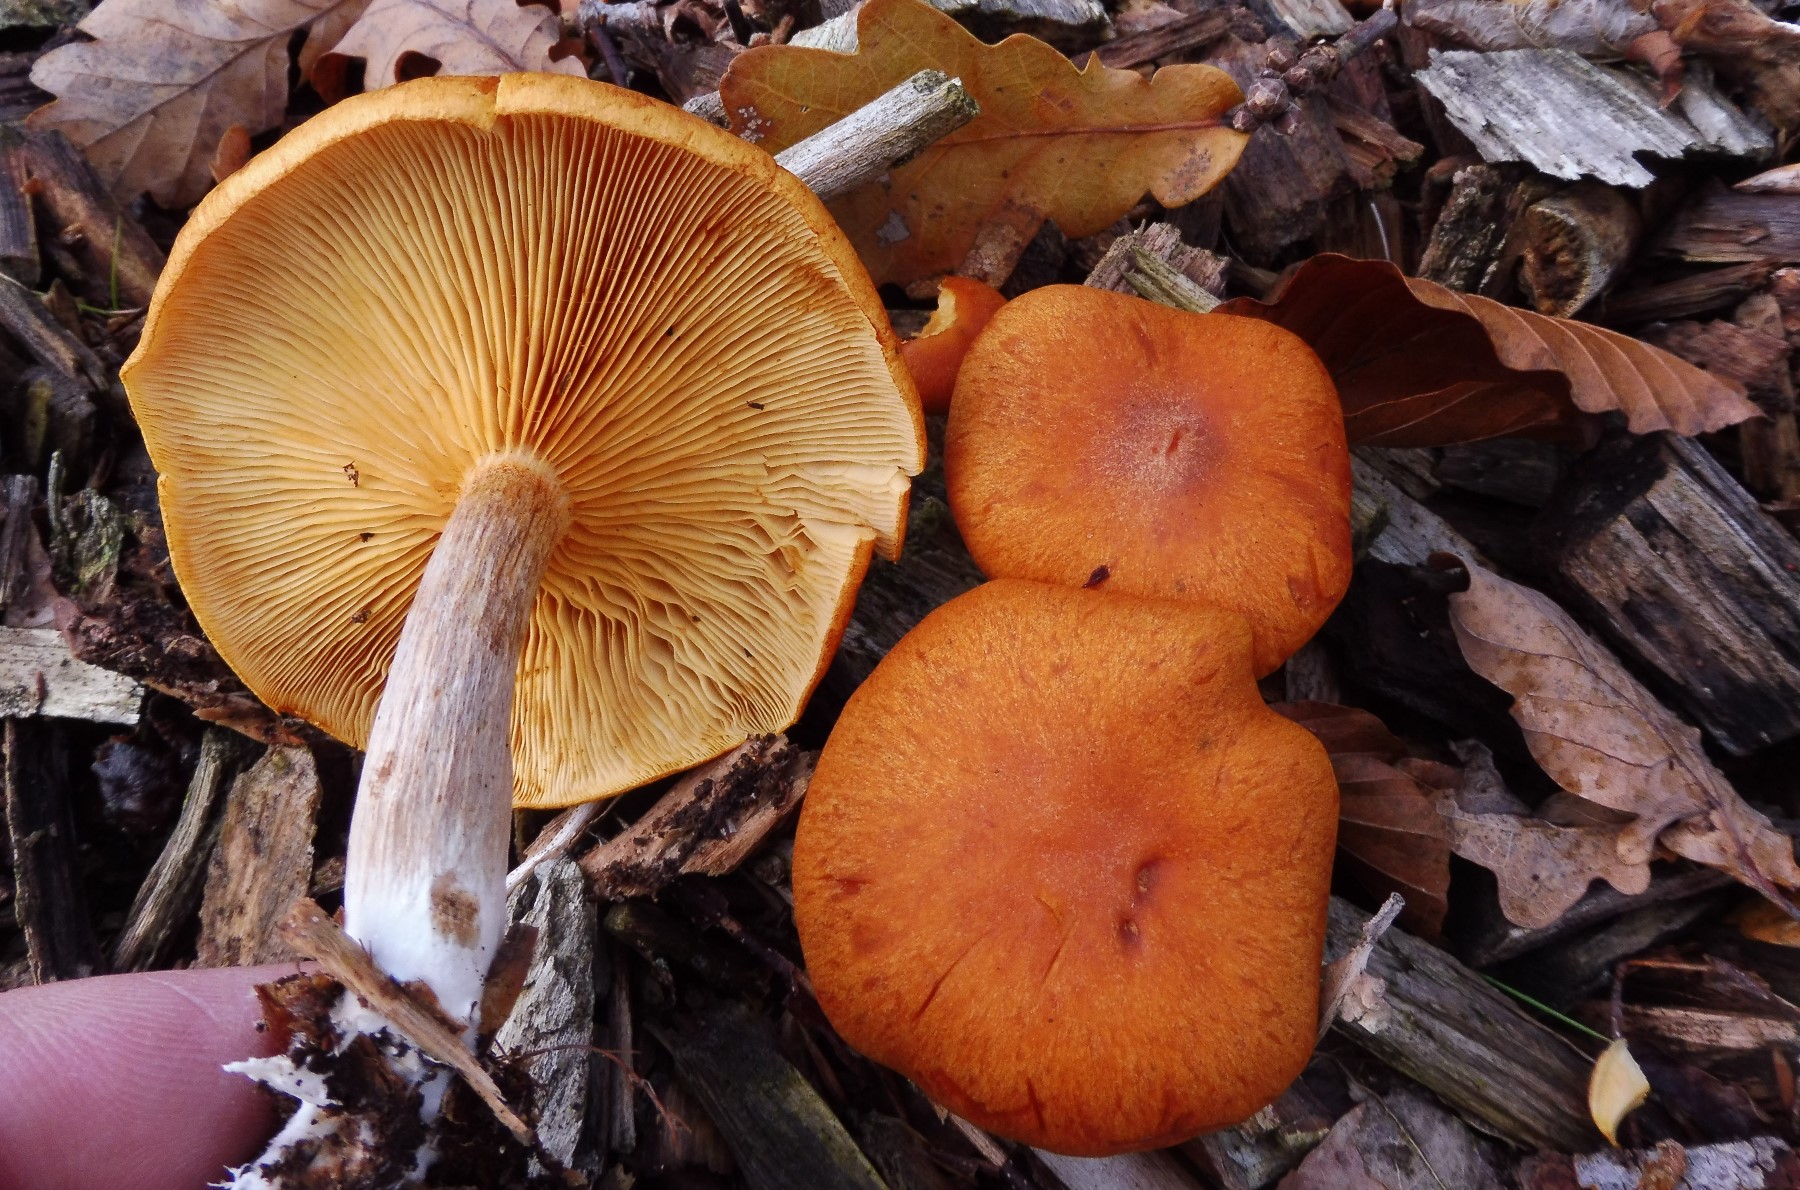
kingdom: Fungi
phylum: Basidiomycota
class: Agaricomycetes
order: Agaricales
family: Hymenogastraceae
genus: Gymnopilus
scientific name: Gymnopilus penetrans
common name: plettet flammehat
